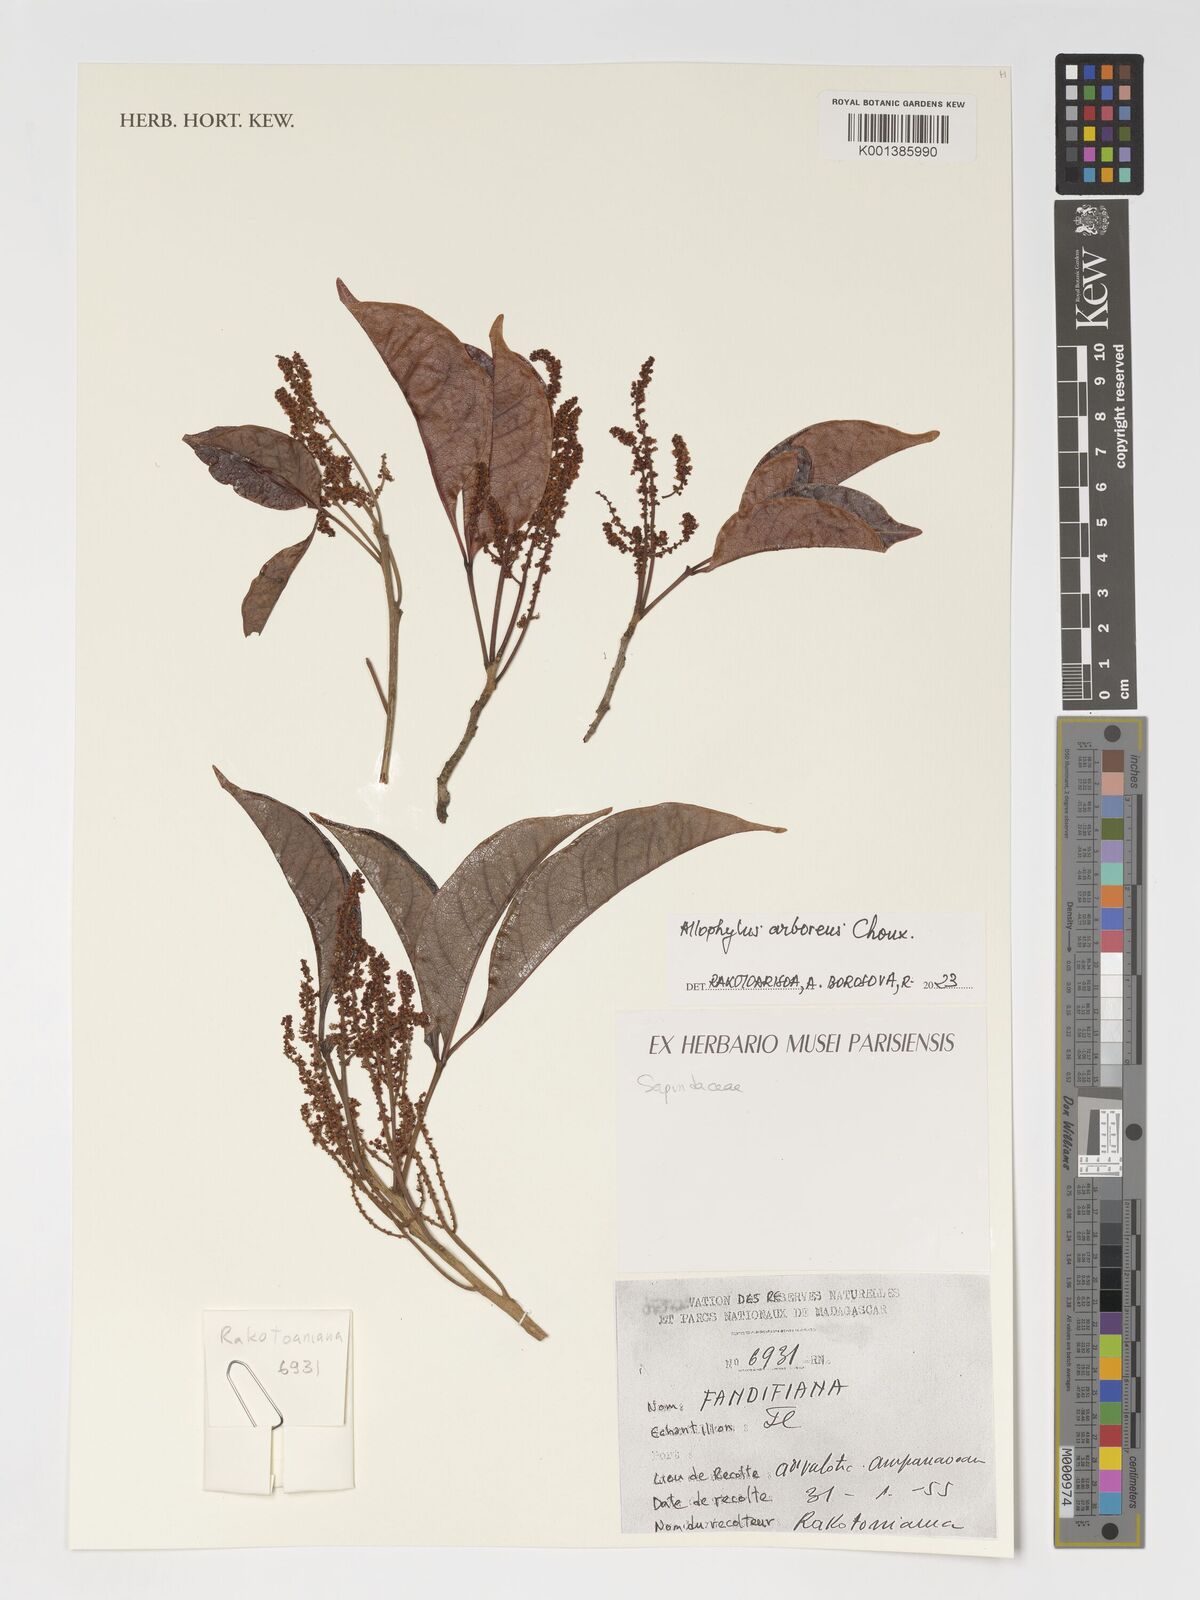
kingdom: Plantae
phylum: Tracheophyta
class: Magnoliopsida
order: Sapindales
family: Sapindaceae
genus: Allophylus
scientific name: Allophylus arboreus
